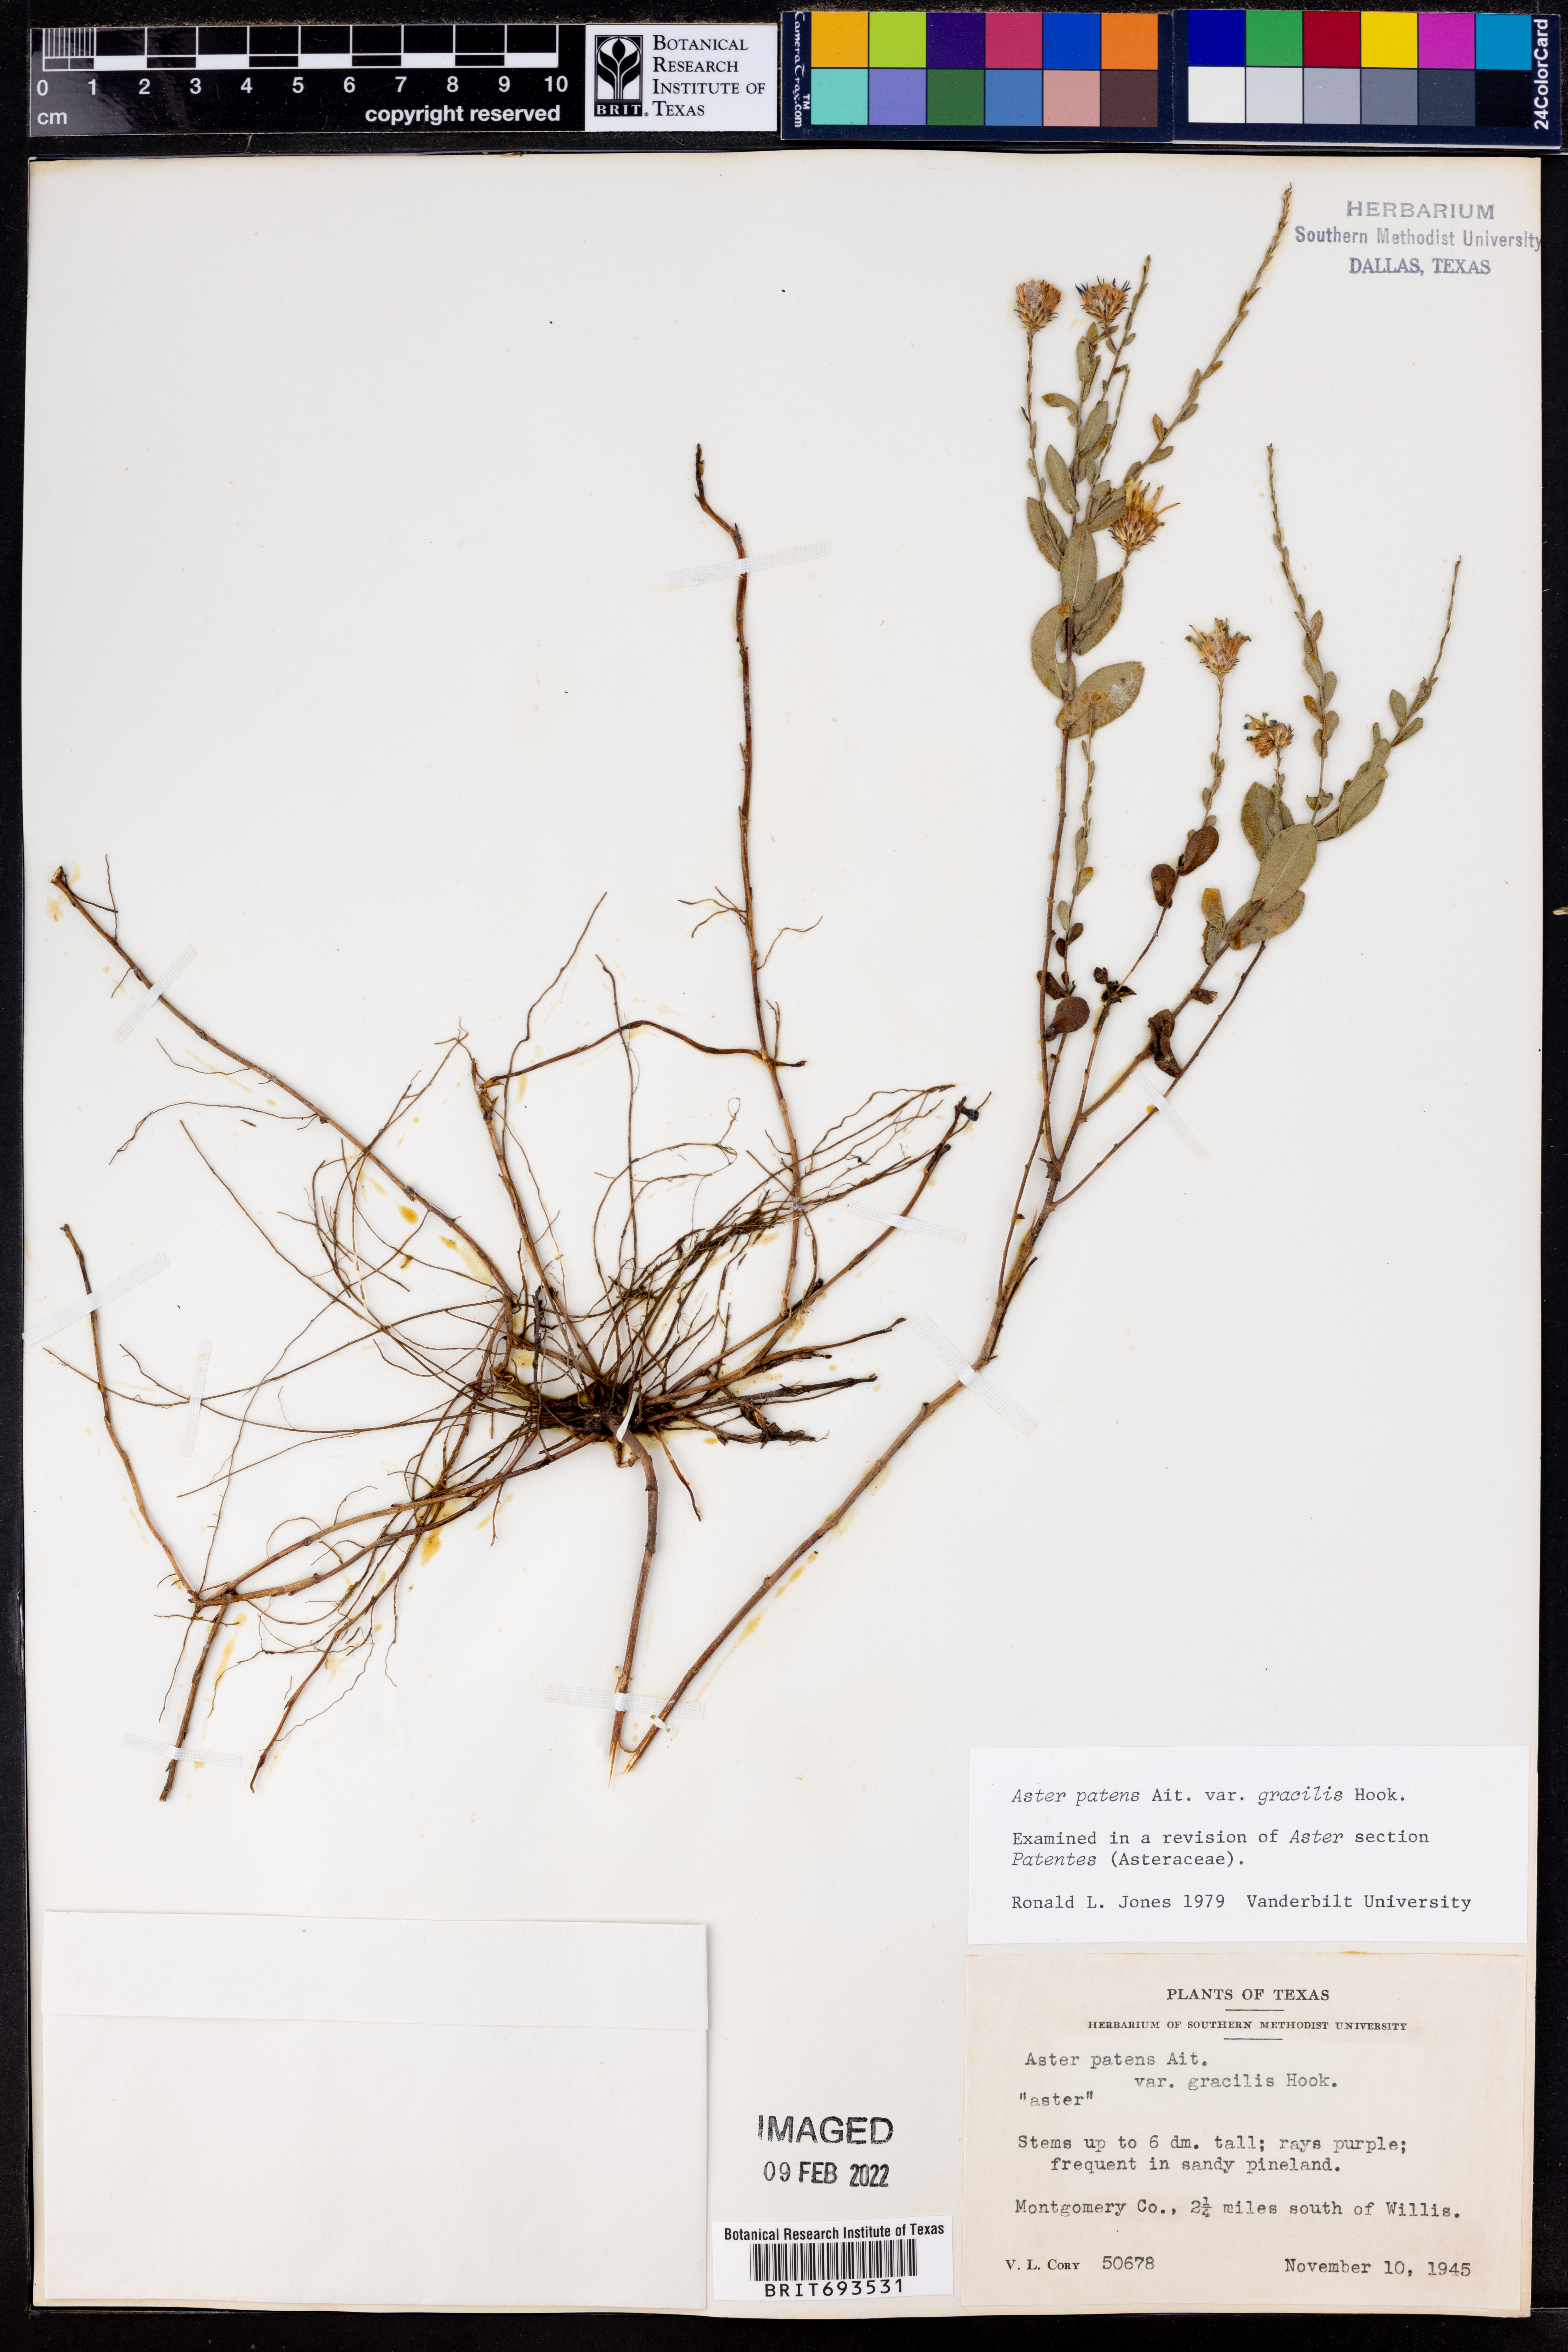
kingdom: Plantae
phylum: Tracheophyta
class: Magnoliopsida
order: Asterales
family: Asteraceae
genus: Symphyotrichum
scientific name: Symphyotrichum patens
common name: Late purple aster
